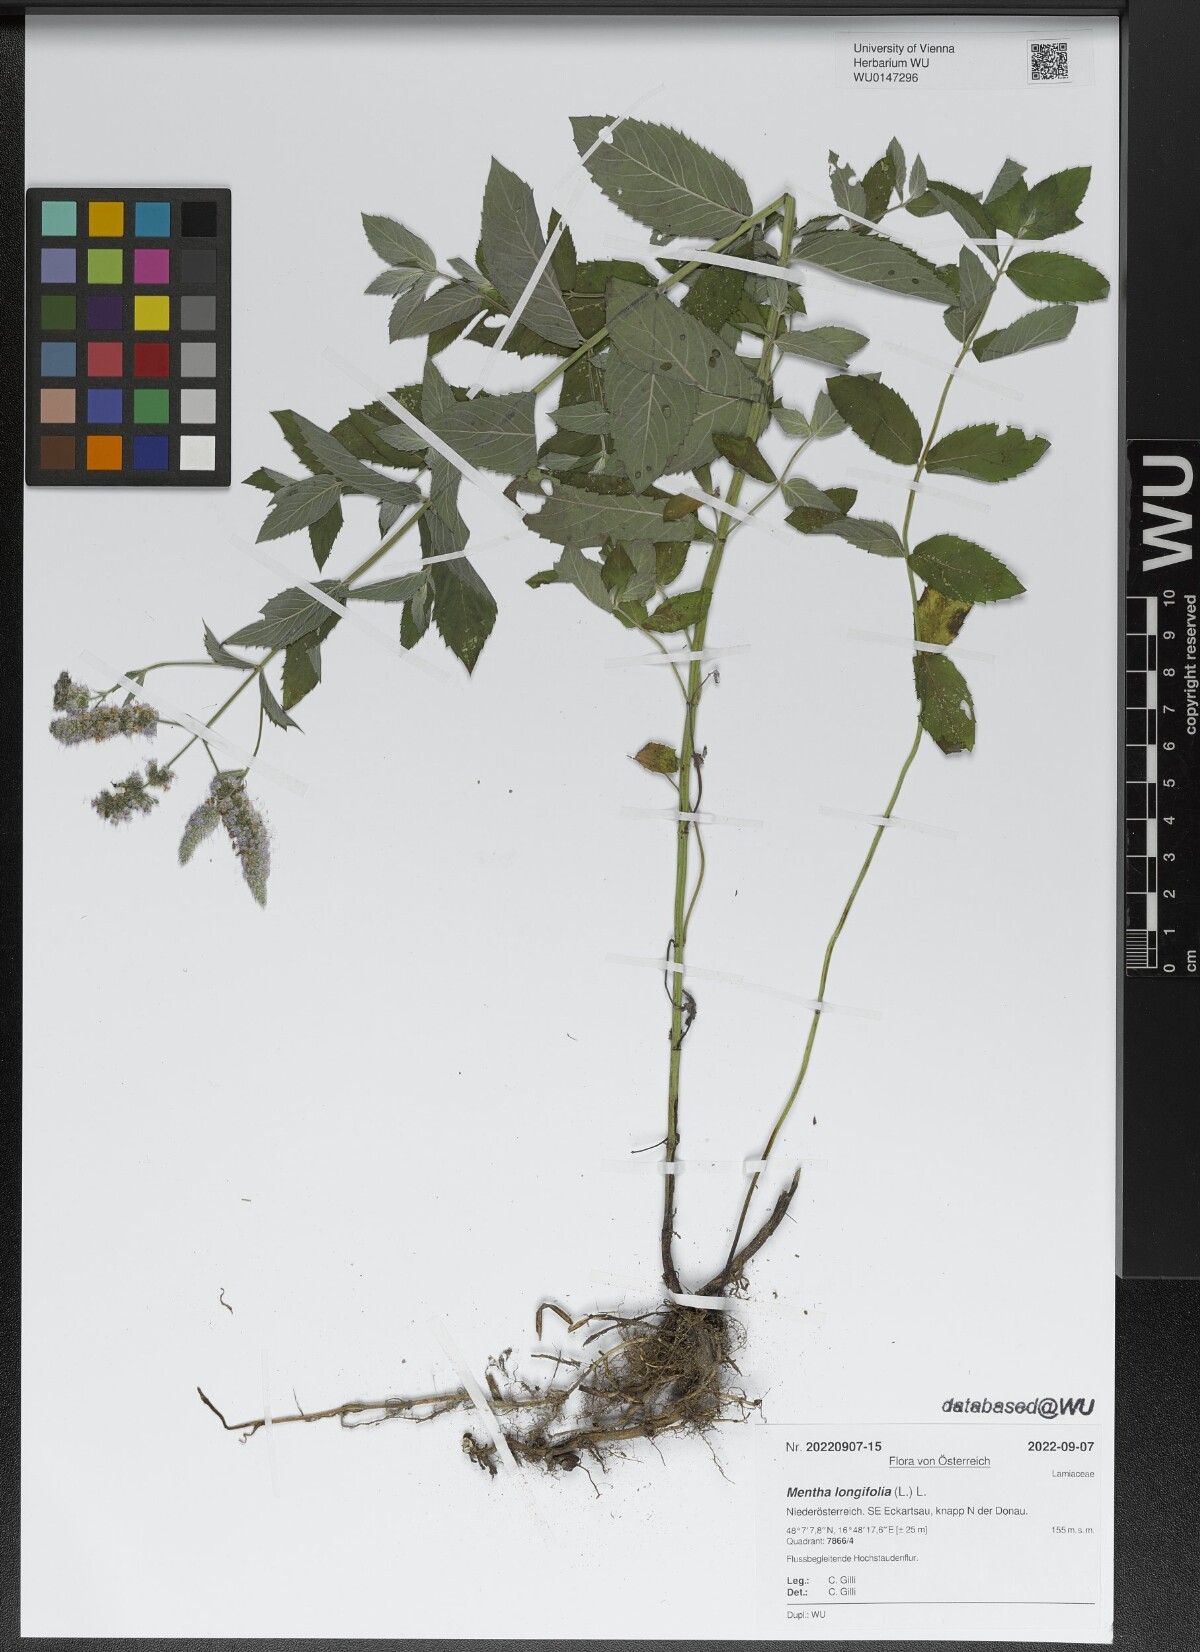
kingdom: Plantae
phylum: Tracheophyta
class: Magnoliopsida
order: Lamiales
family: Lamiaceae
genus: Mentha
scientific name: Mentha longifolia
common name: Horse mint
